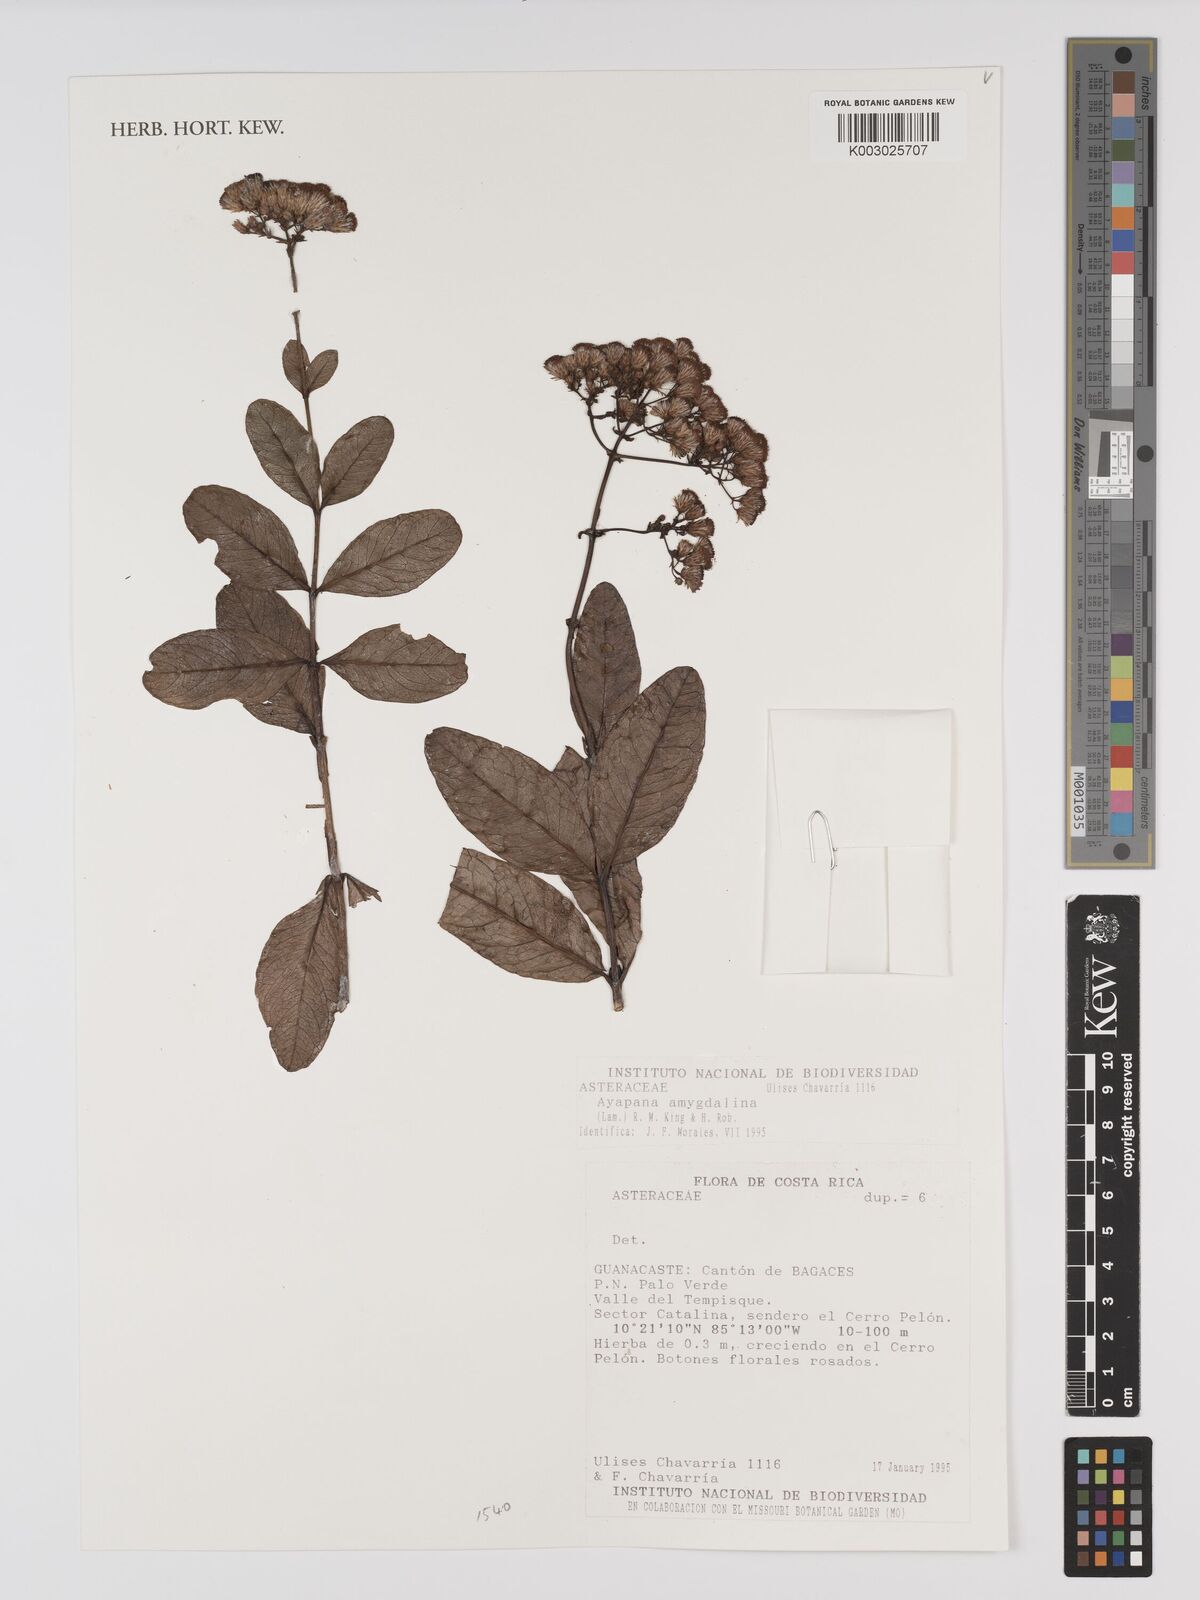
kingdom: Plantae
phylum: Tracheophyta
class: Magnoliopsida
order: Asterales
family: Asteraceae
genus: Ayapana
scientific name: Ayapana amygdalina
